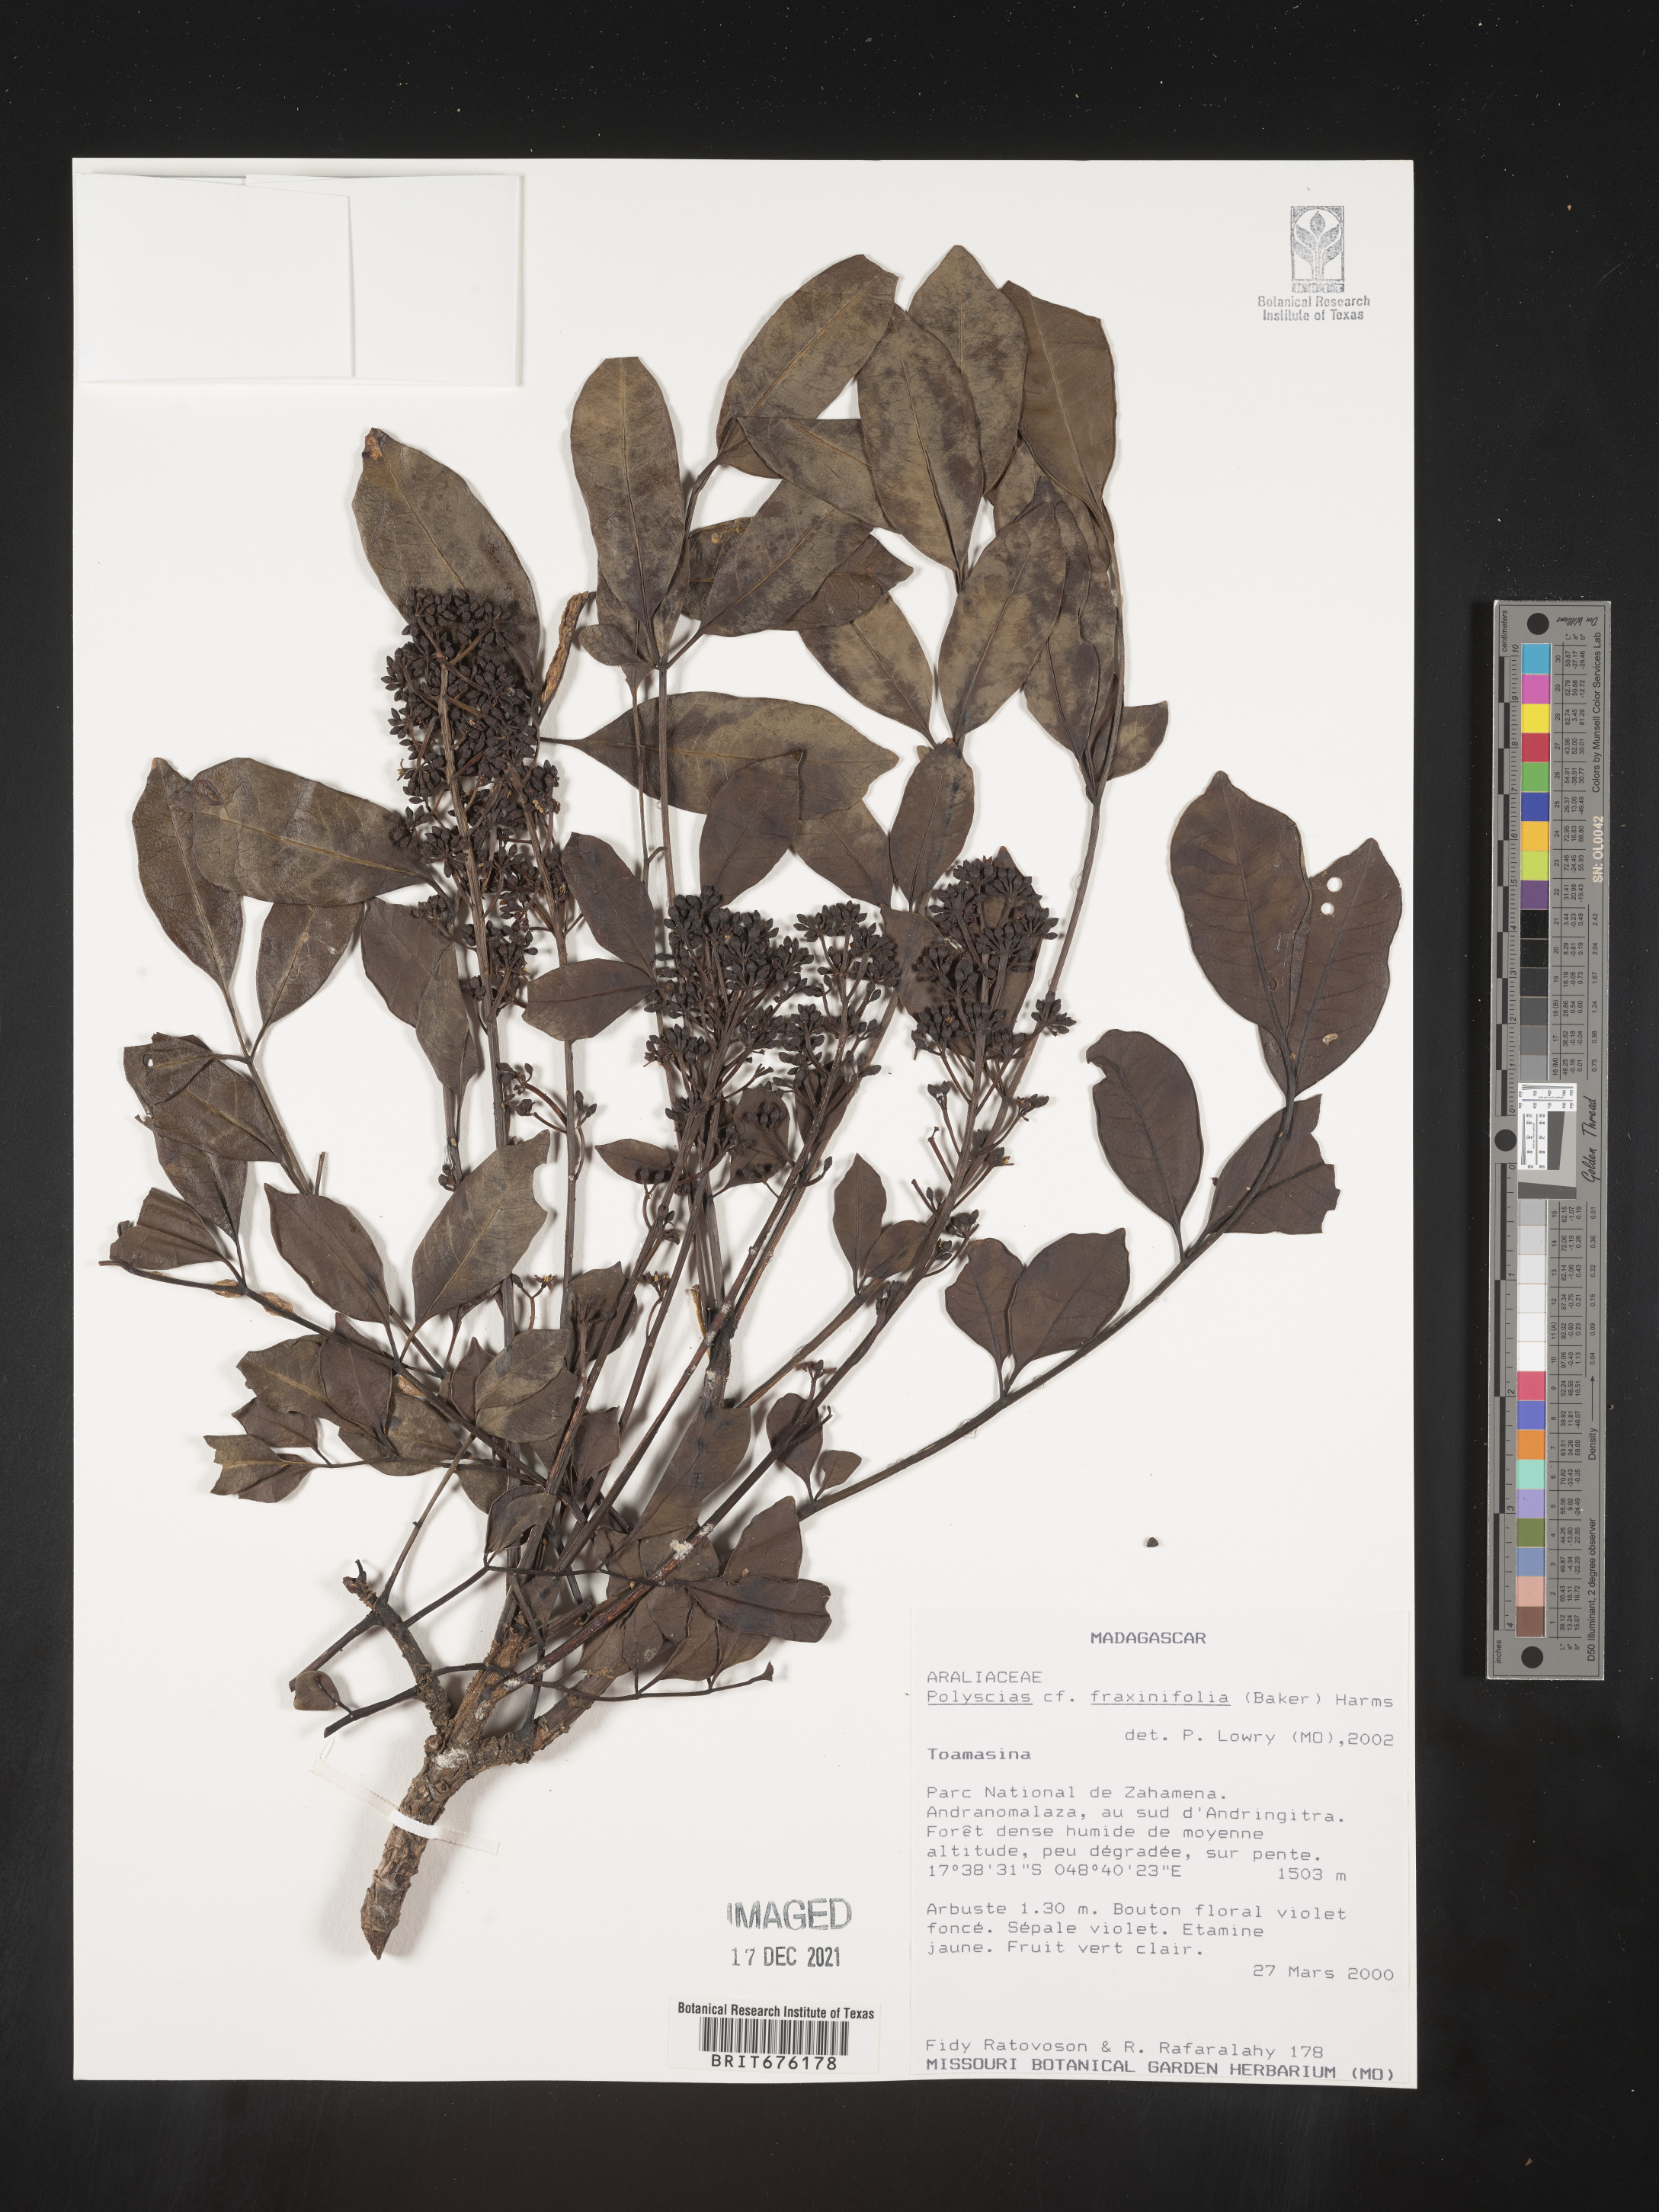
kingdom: Plantae
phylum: Tracheophyta
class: Magnoliopsida
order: Apiales
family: Araliaceae
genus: Polyscias
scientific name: Polyscias
